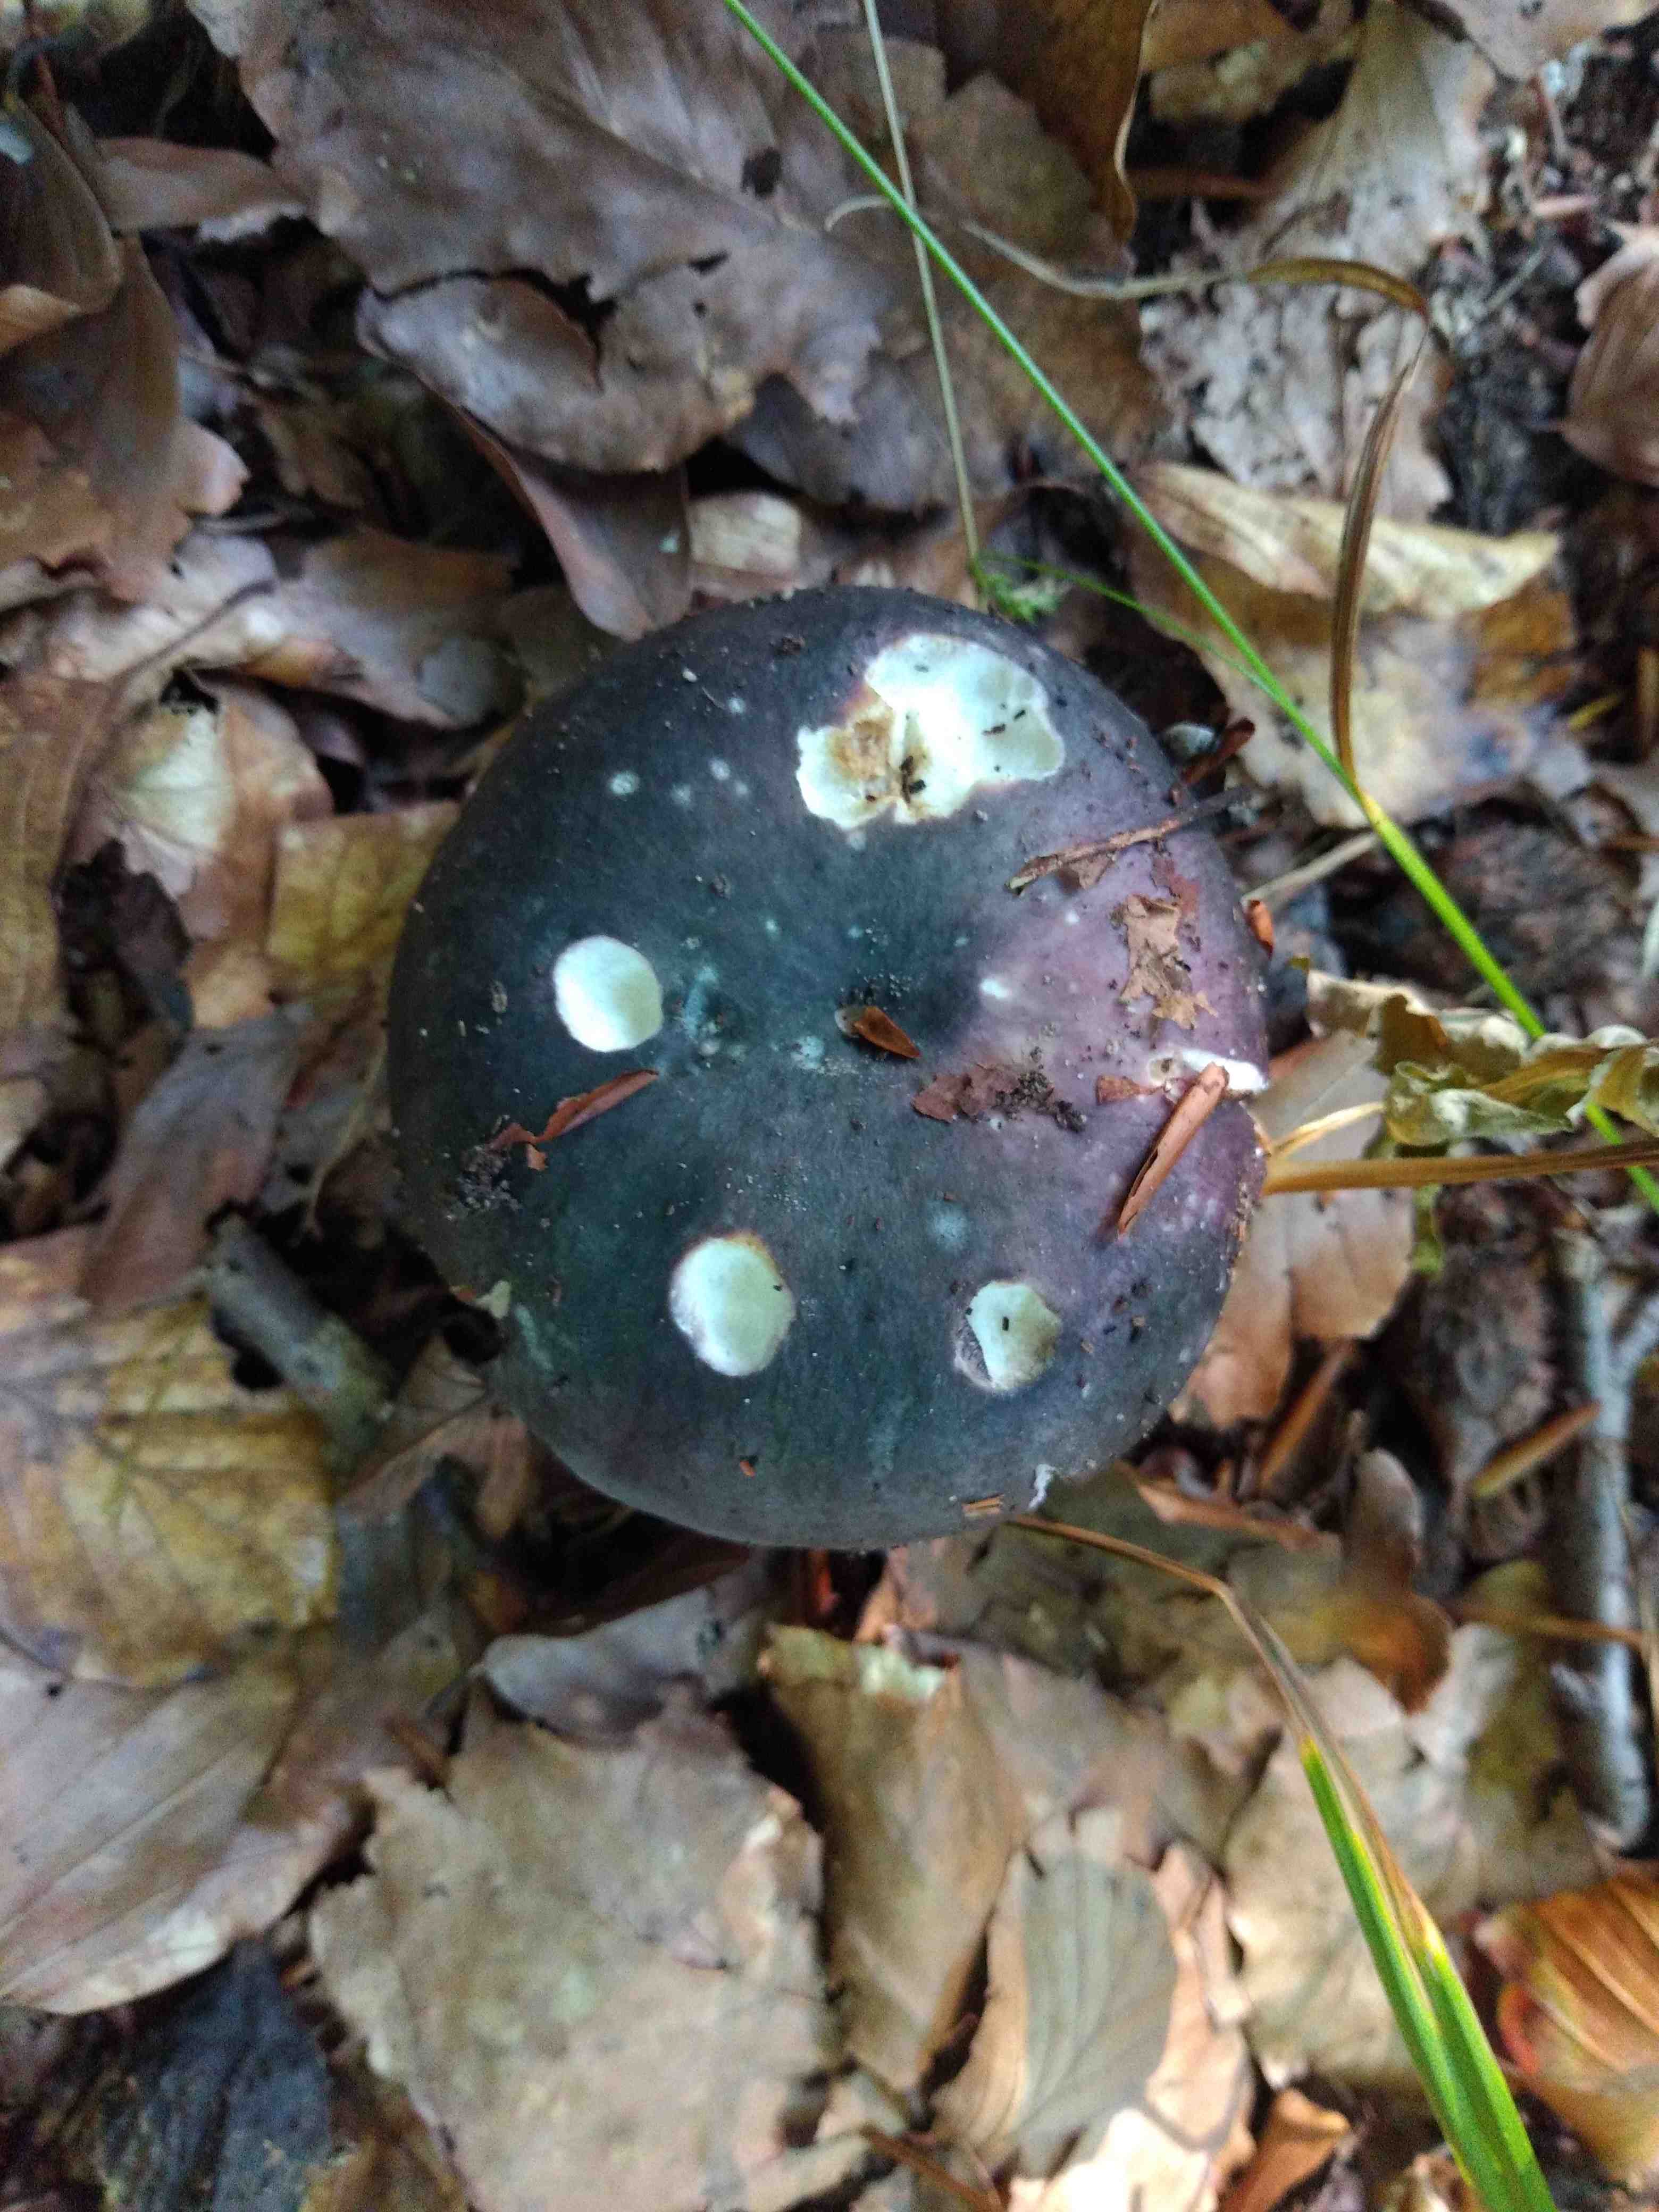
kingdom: Fungi
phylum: Basidiomycota
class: Agaricomycetes
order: Russulales
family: Russulaceae
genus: Russula
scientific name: Russula
